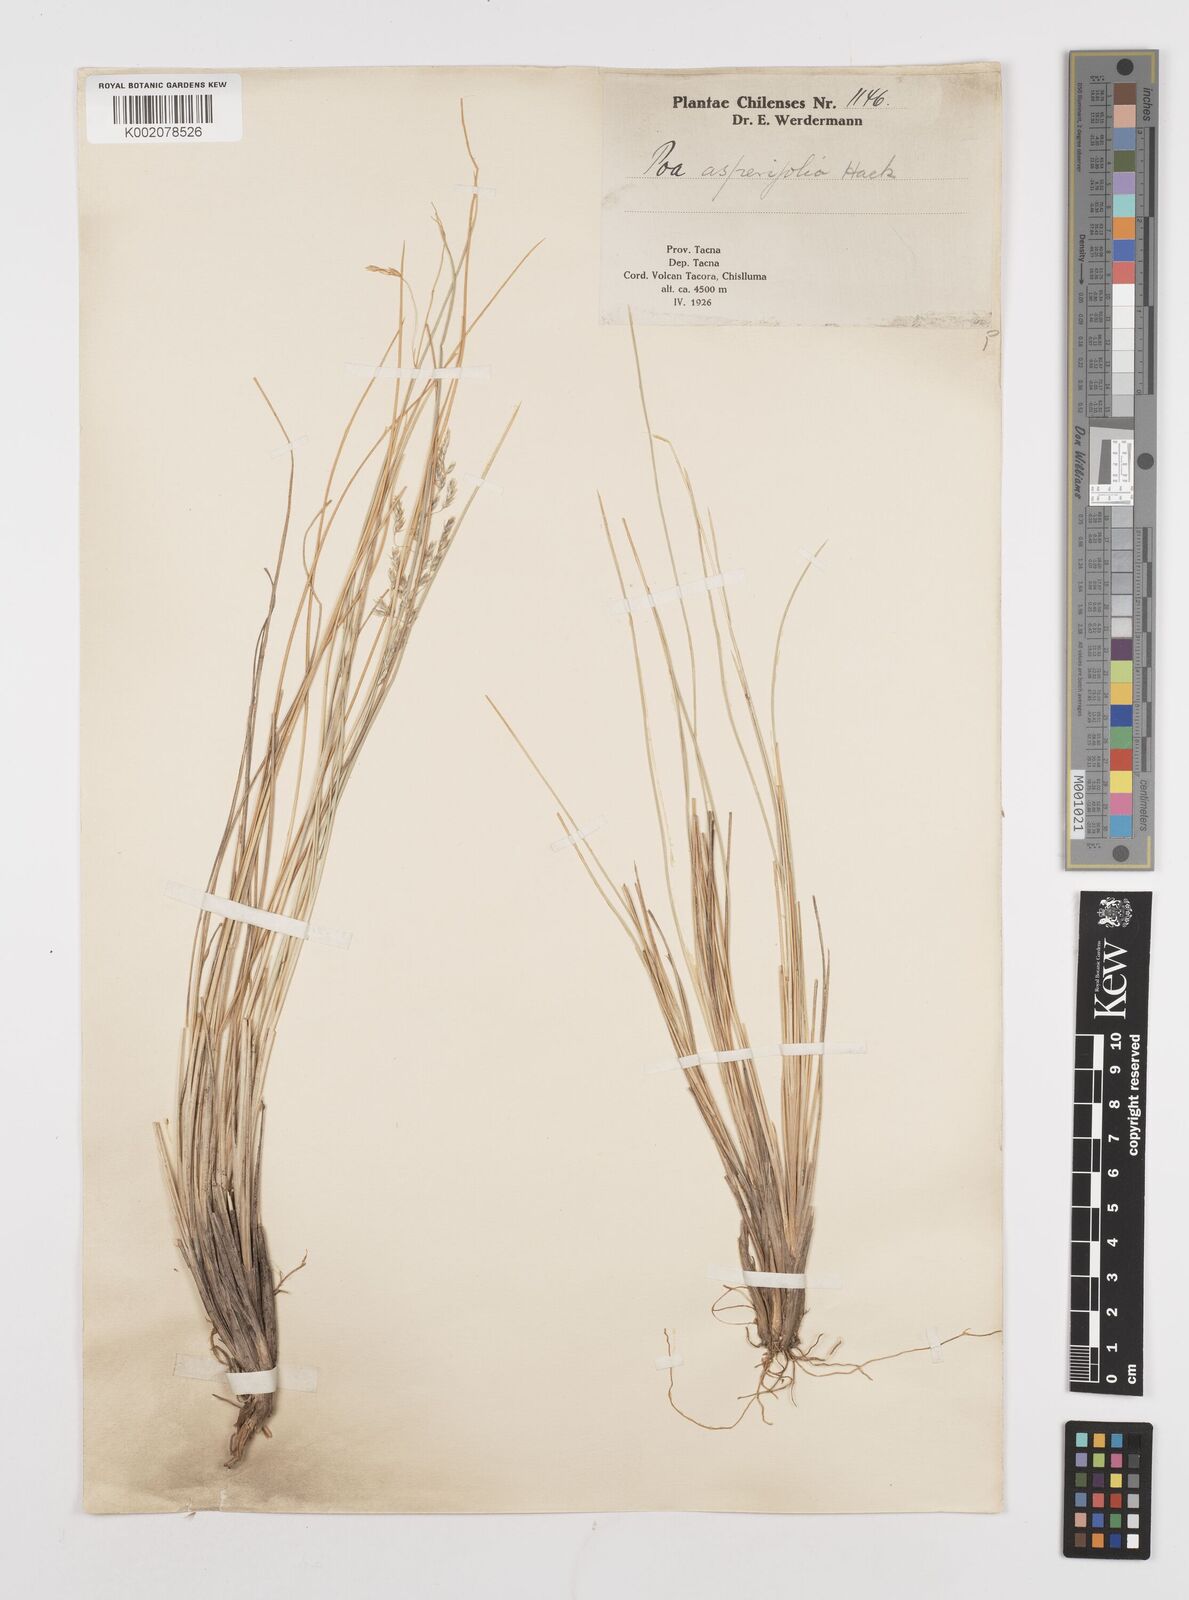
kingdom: Plantae
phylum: Tracheophyta
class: Liliopsida
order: Poales
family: Poaceae
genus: Poa
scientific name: Poa
